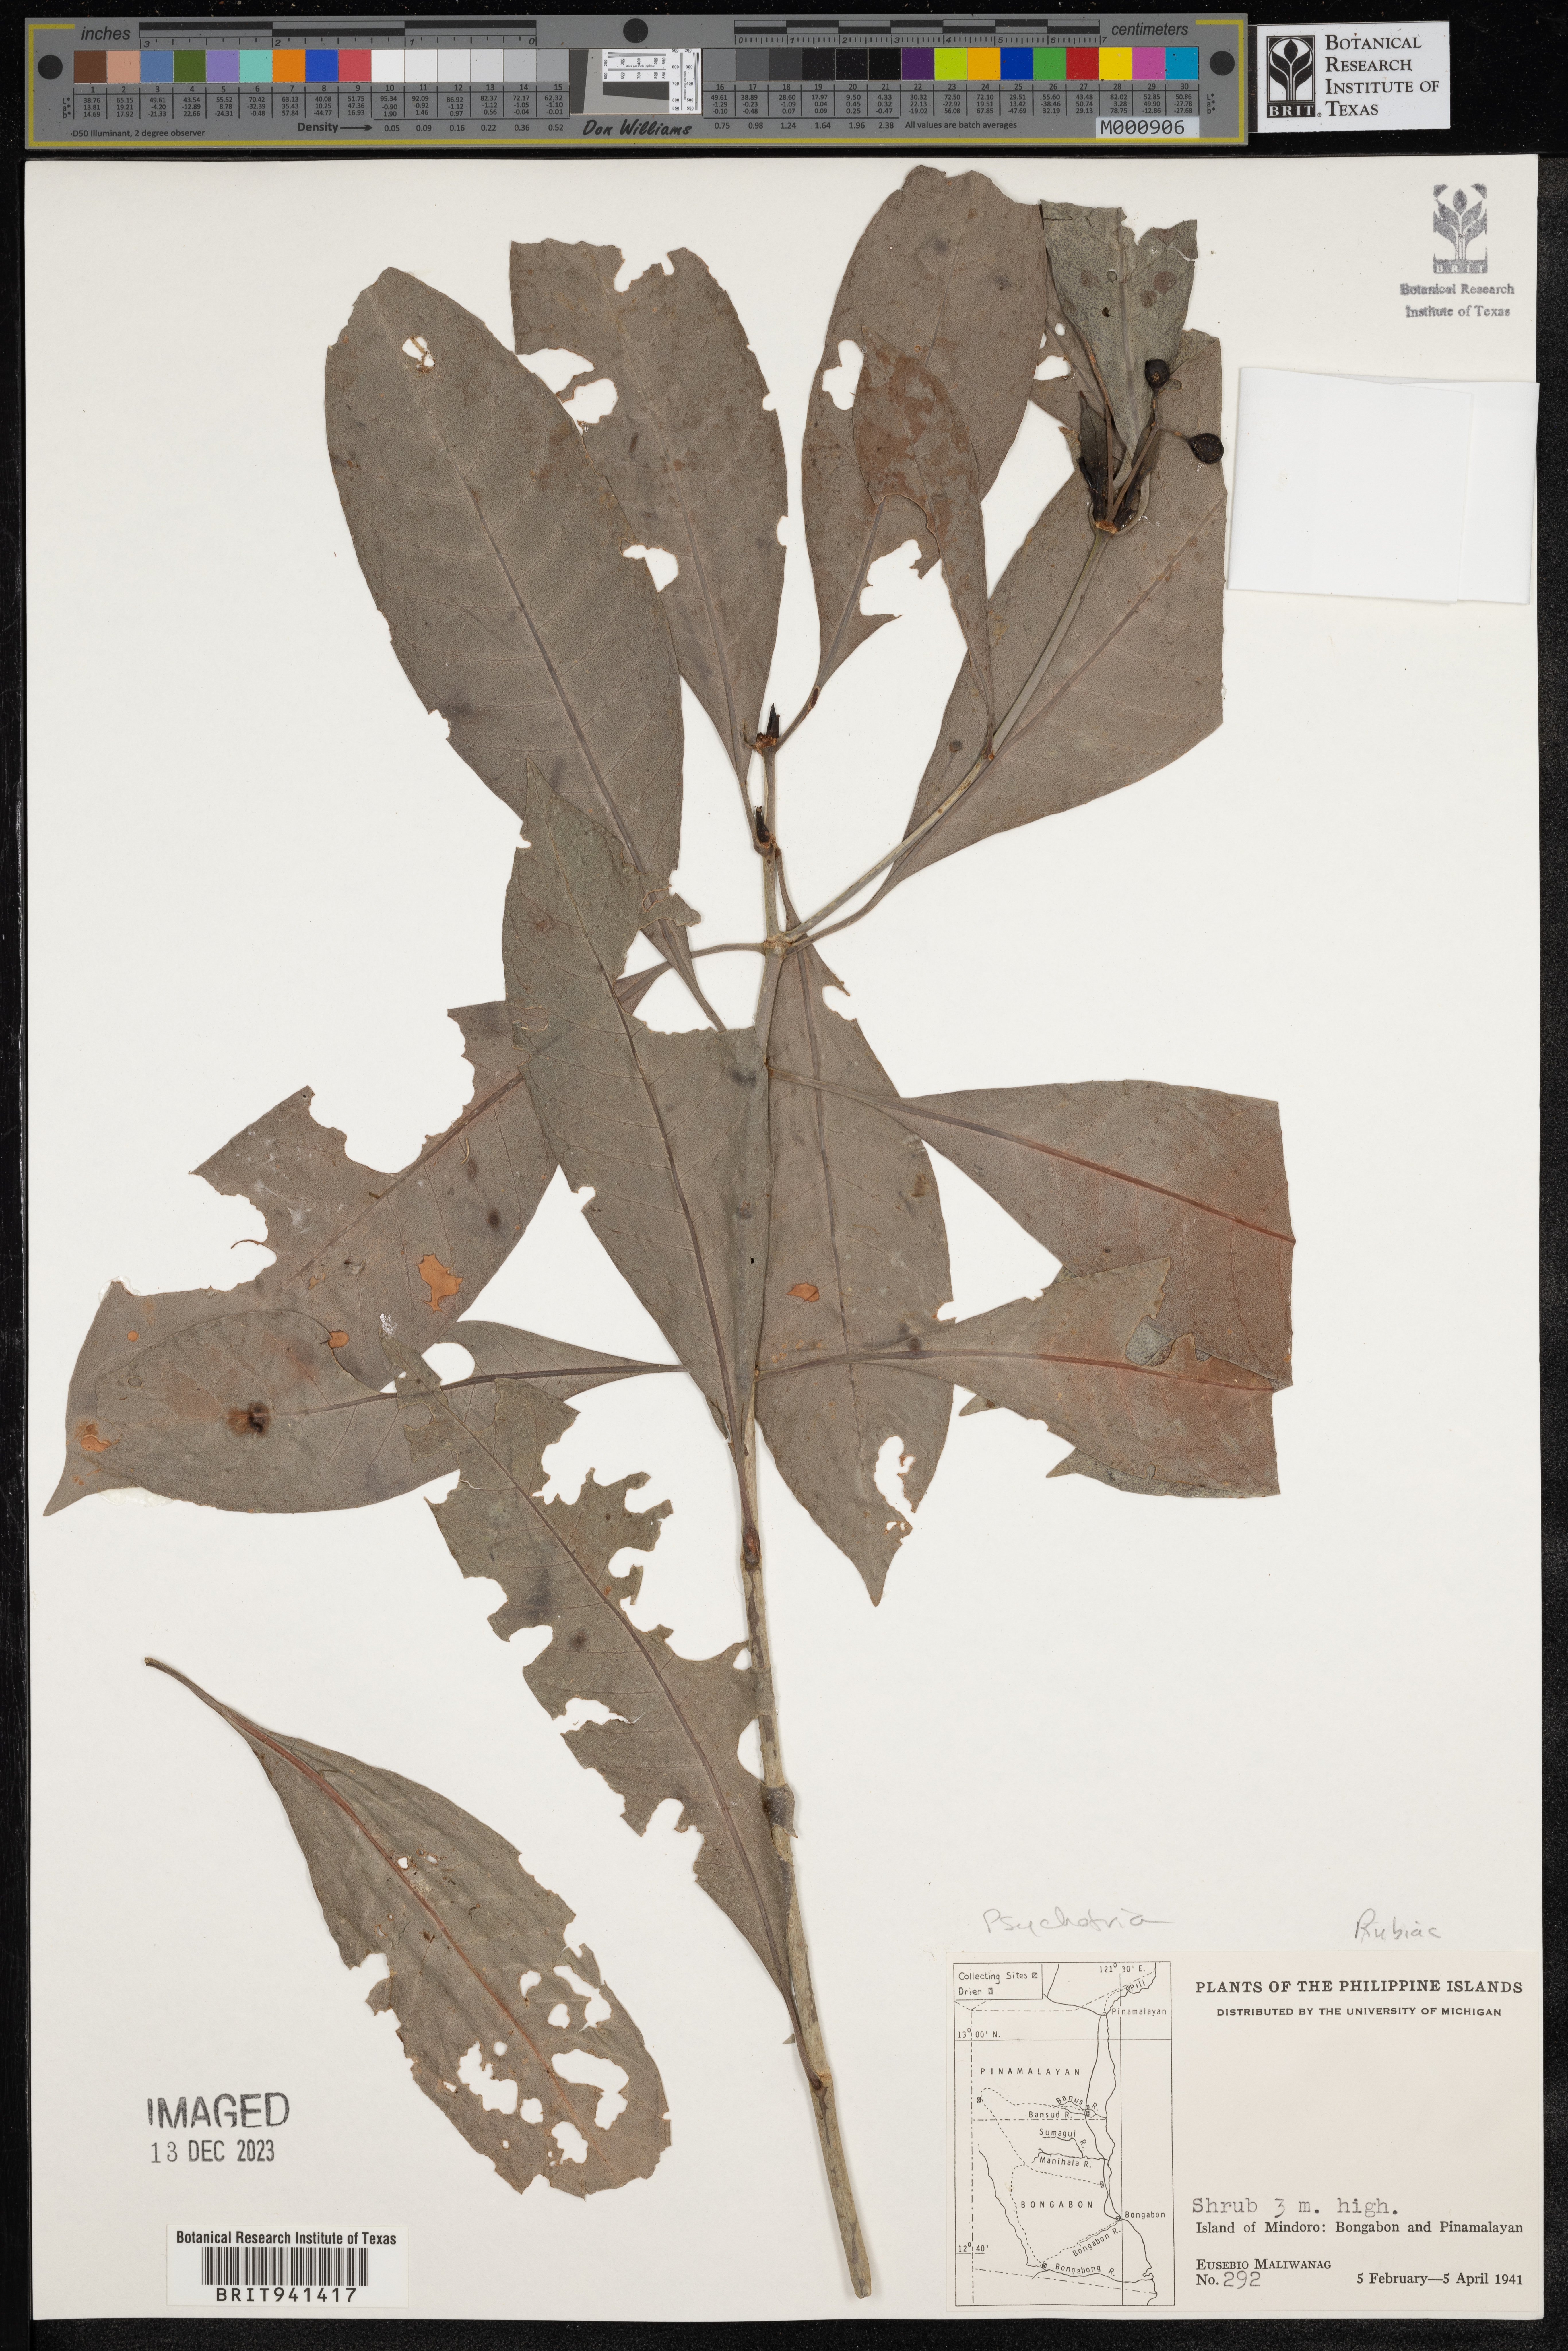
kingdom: Plantae
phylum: Tracheophyta
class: Magnoliopsida
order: Gentianales
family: Rubiaceae
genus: Psychotria
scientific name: Psychotria
